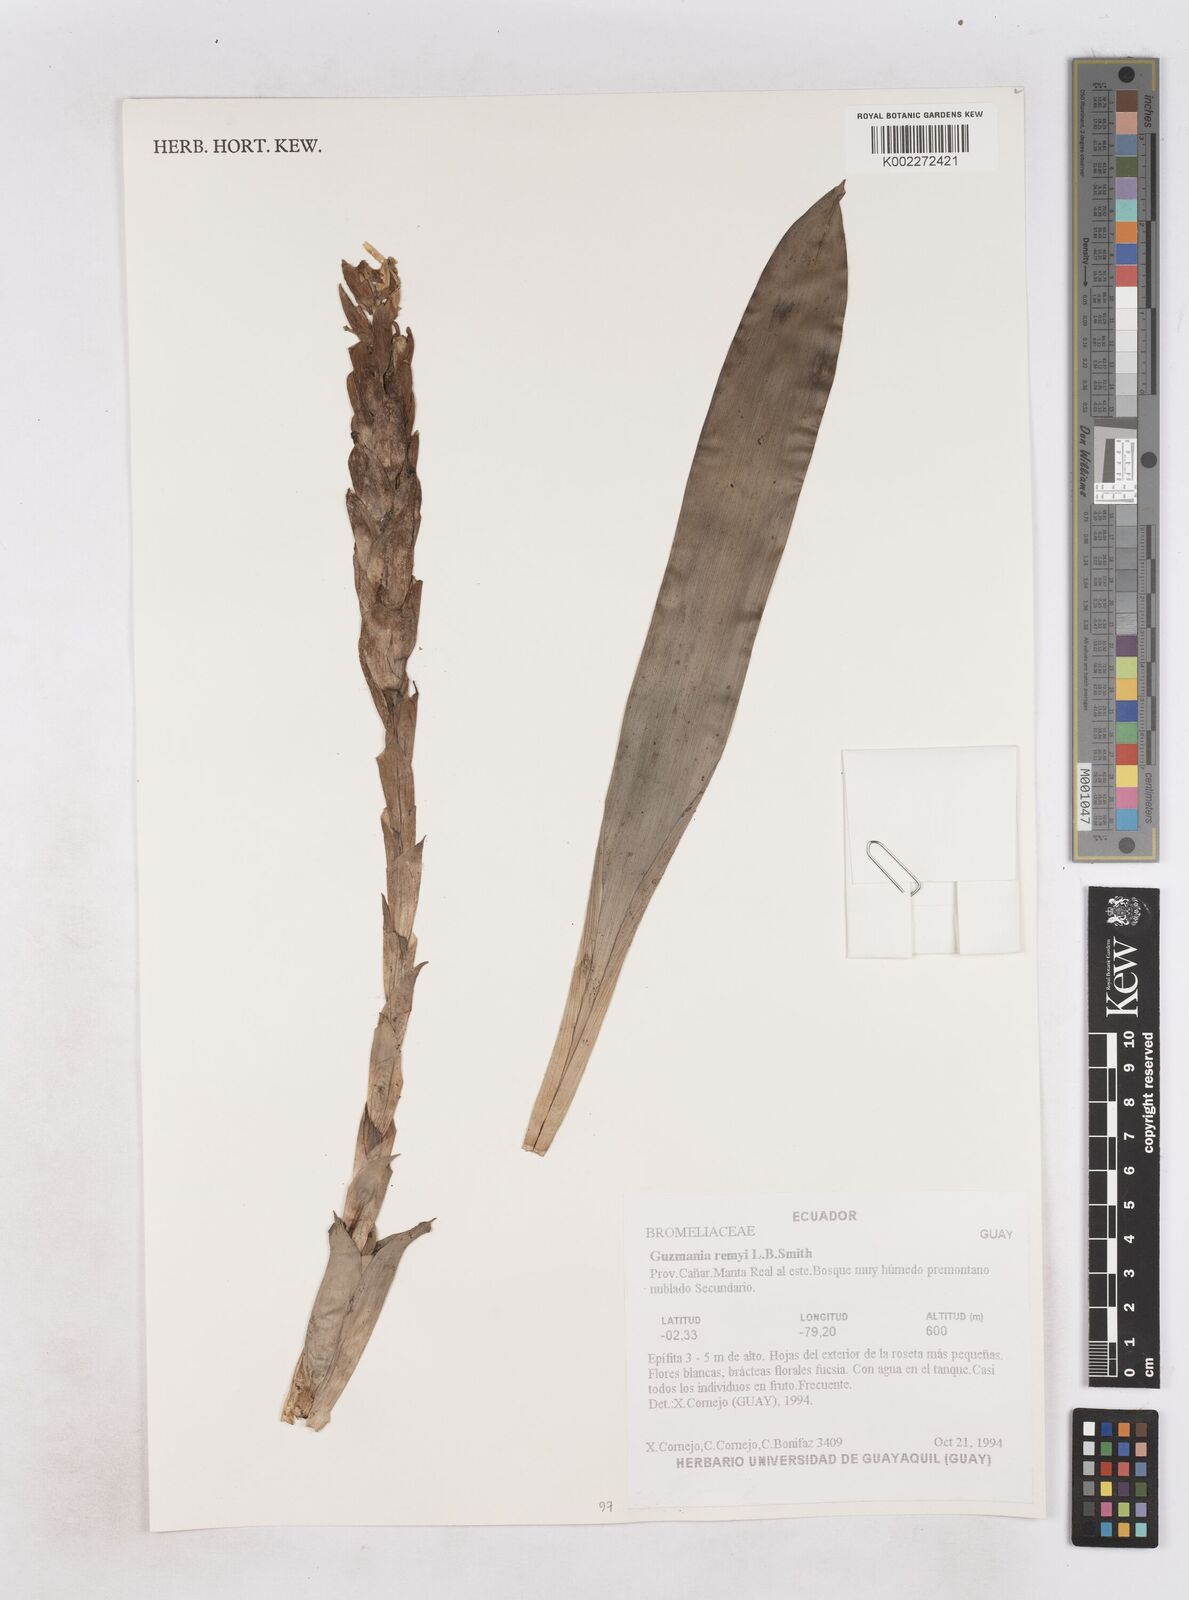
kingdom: Plantae
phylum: Tracheophyta
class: Liliopsida
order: Poales
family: Bromeliaceae
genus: Guzmania
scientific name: Guzmania remyi
